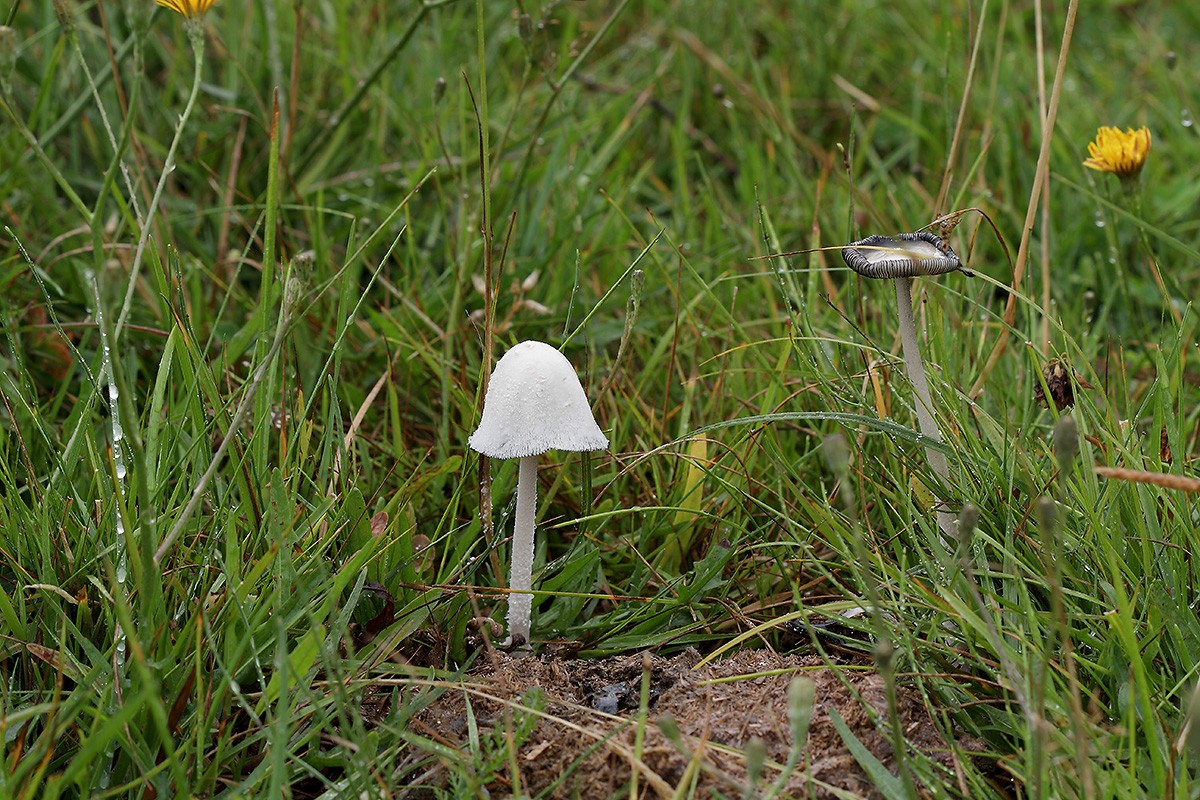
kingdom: Fungi
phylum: Basidiomycota
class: Agaricomycetes
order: Agaricales
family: Psathyrellaceae
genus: Coprinopsis
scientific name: Coprinopsis nivea
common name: snehvid blækhat
